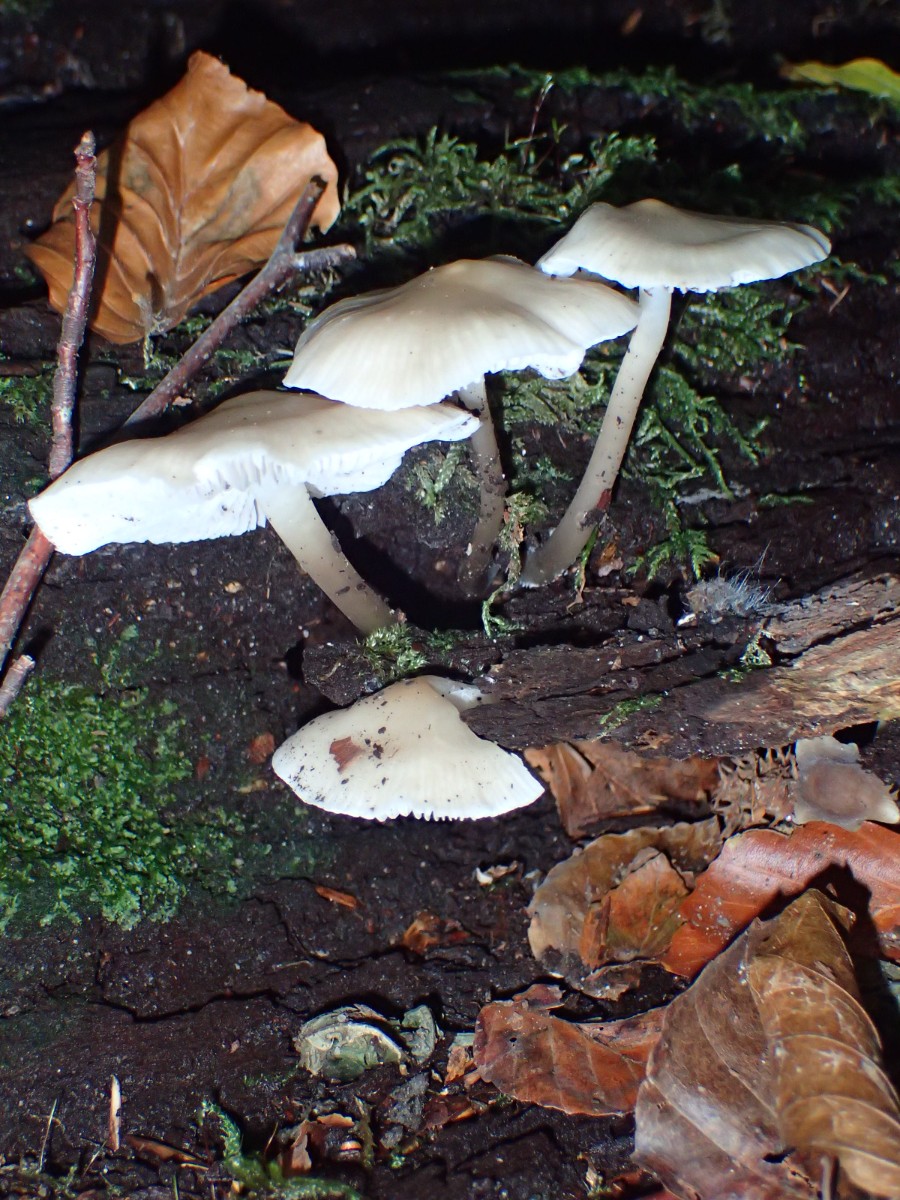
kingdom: Fungi
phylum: Basidiomycota
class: Agaricomycetes
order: Agaricales
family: Mycenaceae
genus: Mycena
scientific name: Mycena galericulata
